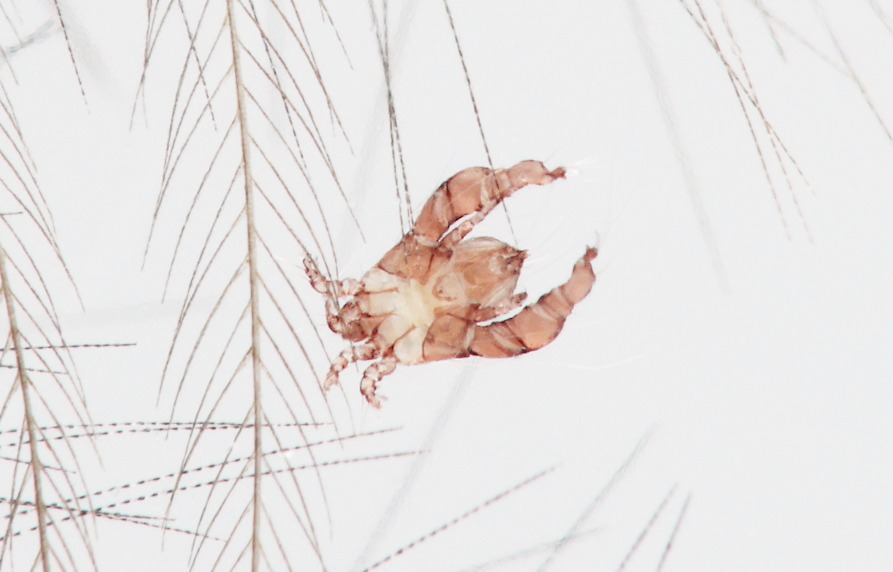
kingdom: Animalia
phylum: Arthropoda
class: Arachnida
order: Sarcoptiformes
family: Analgidae
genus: Analges
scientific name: Analges schumiloae
